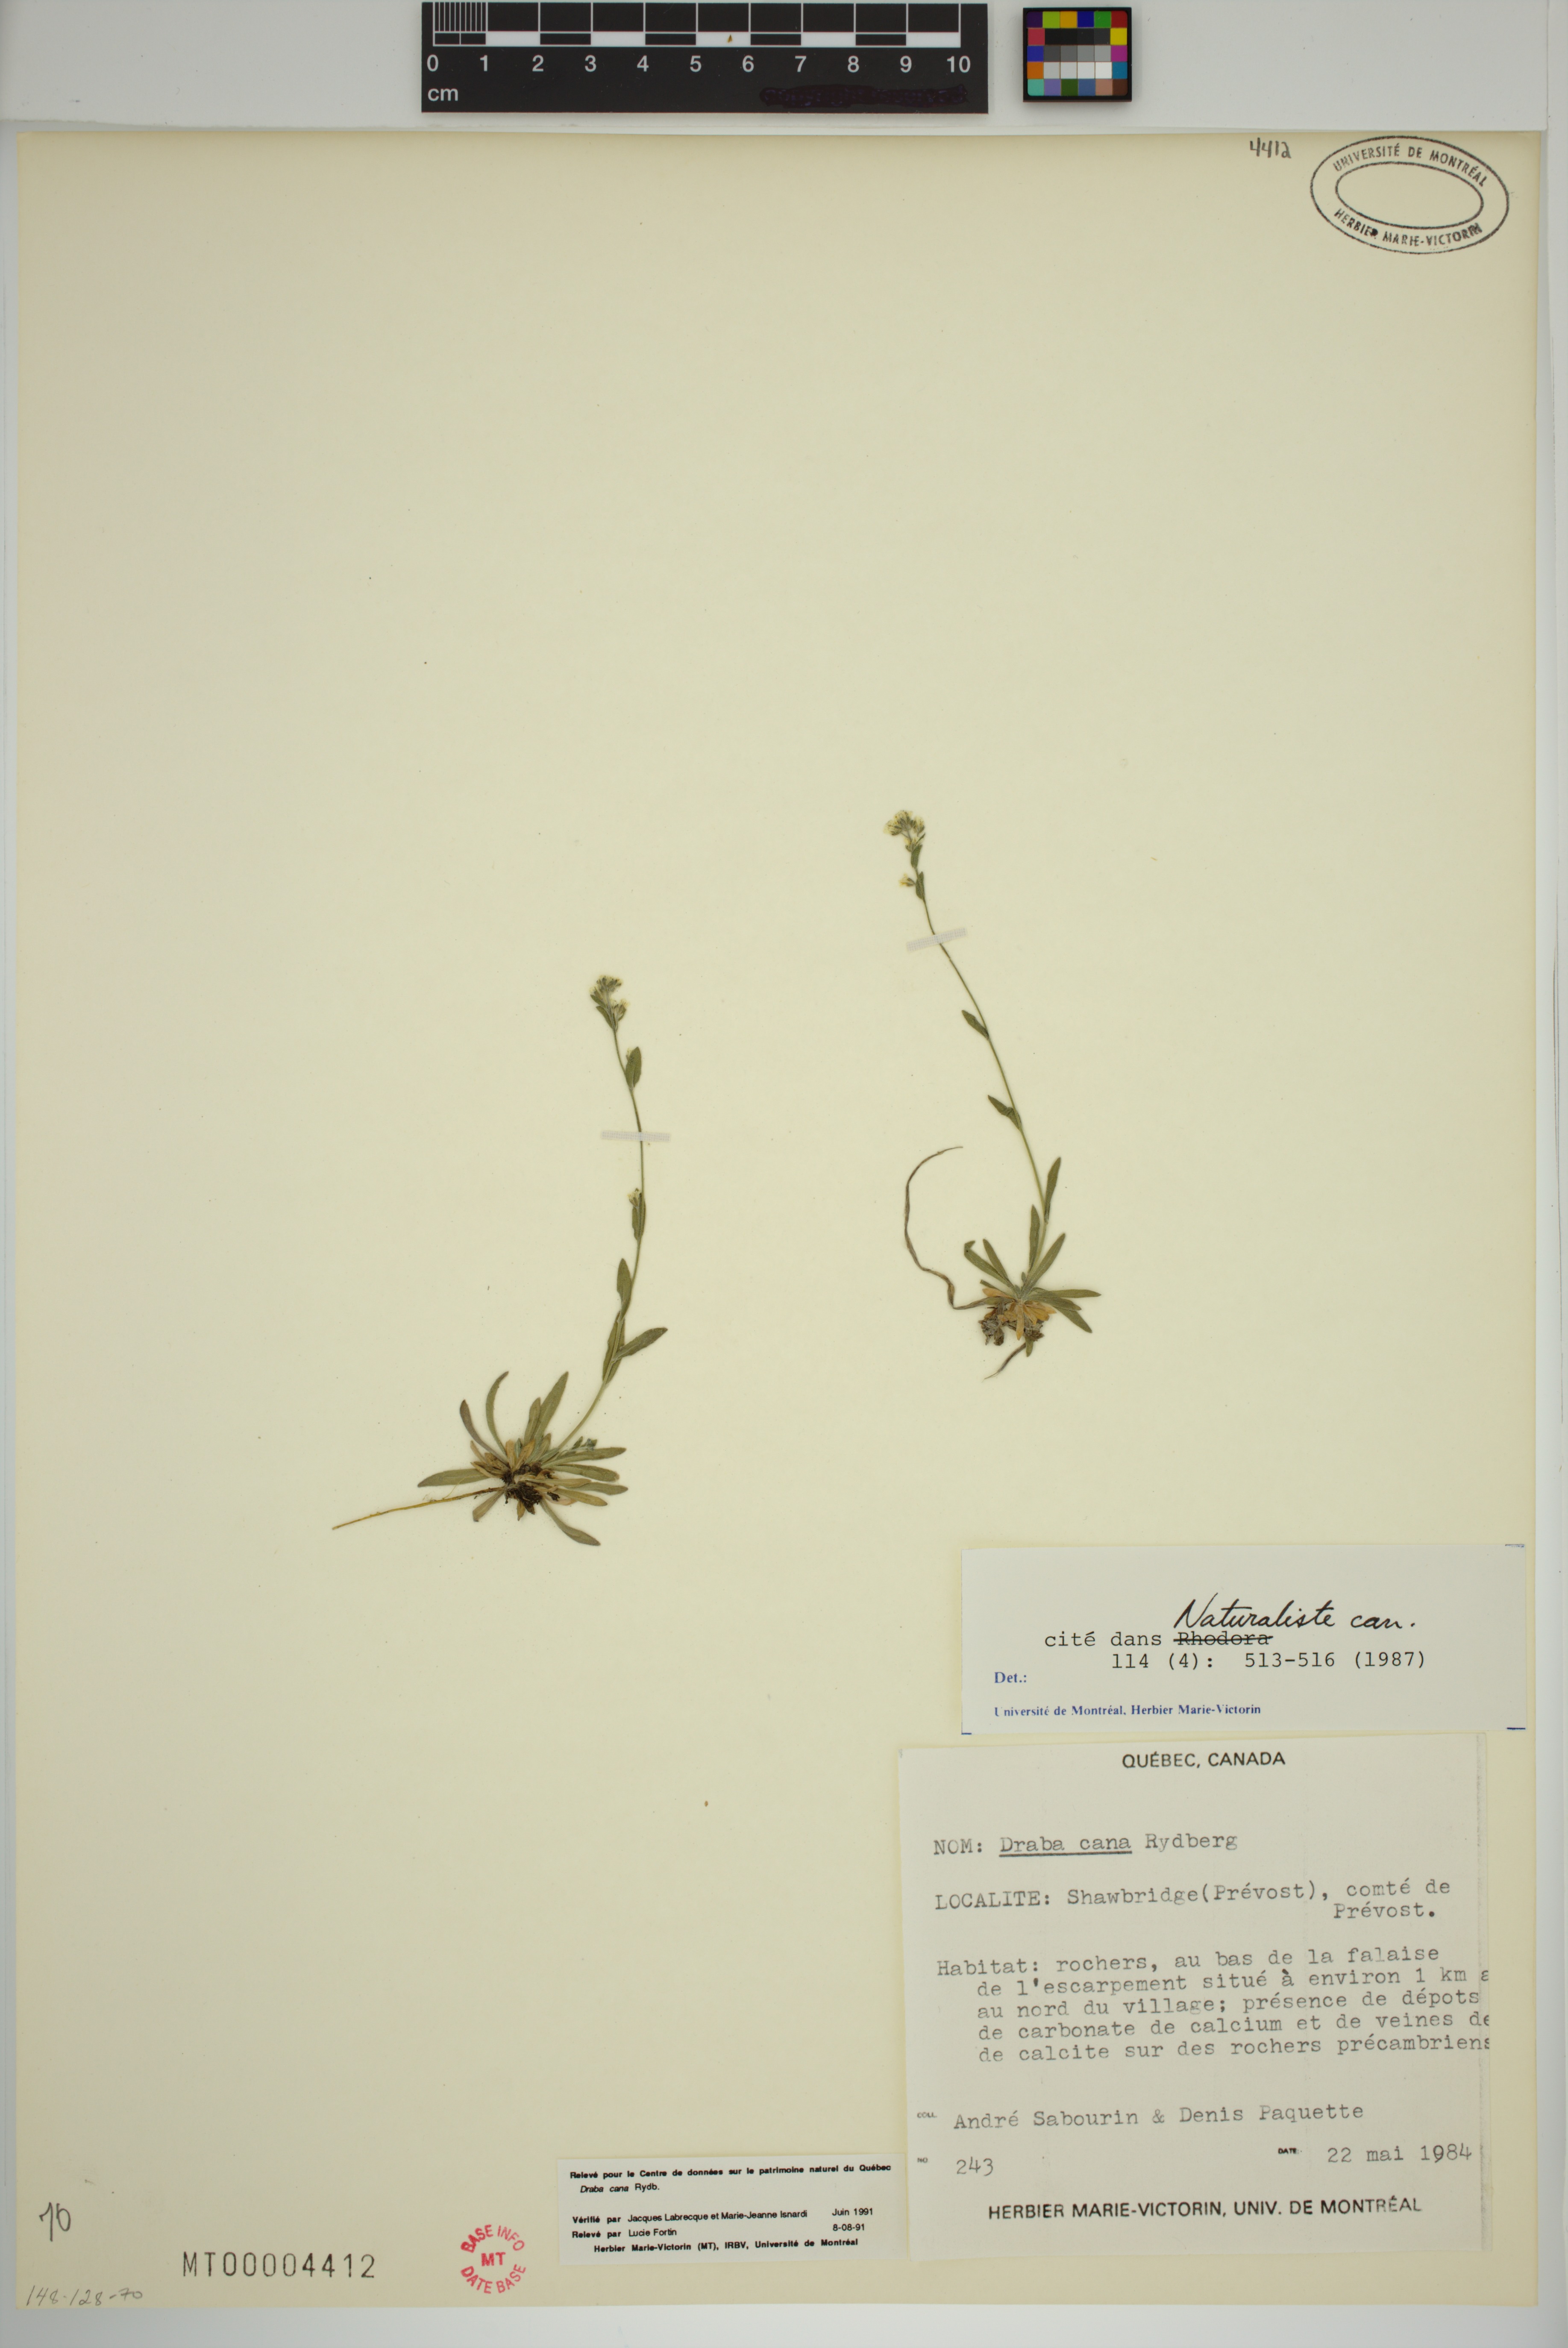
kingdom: Plantae
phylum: Tracheophyta
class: Magnoliopsida
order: Brassicales
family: Brassicaceae
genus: Draba
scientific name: Draba cana
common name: Hoary draba
